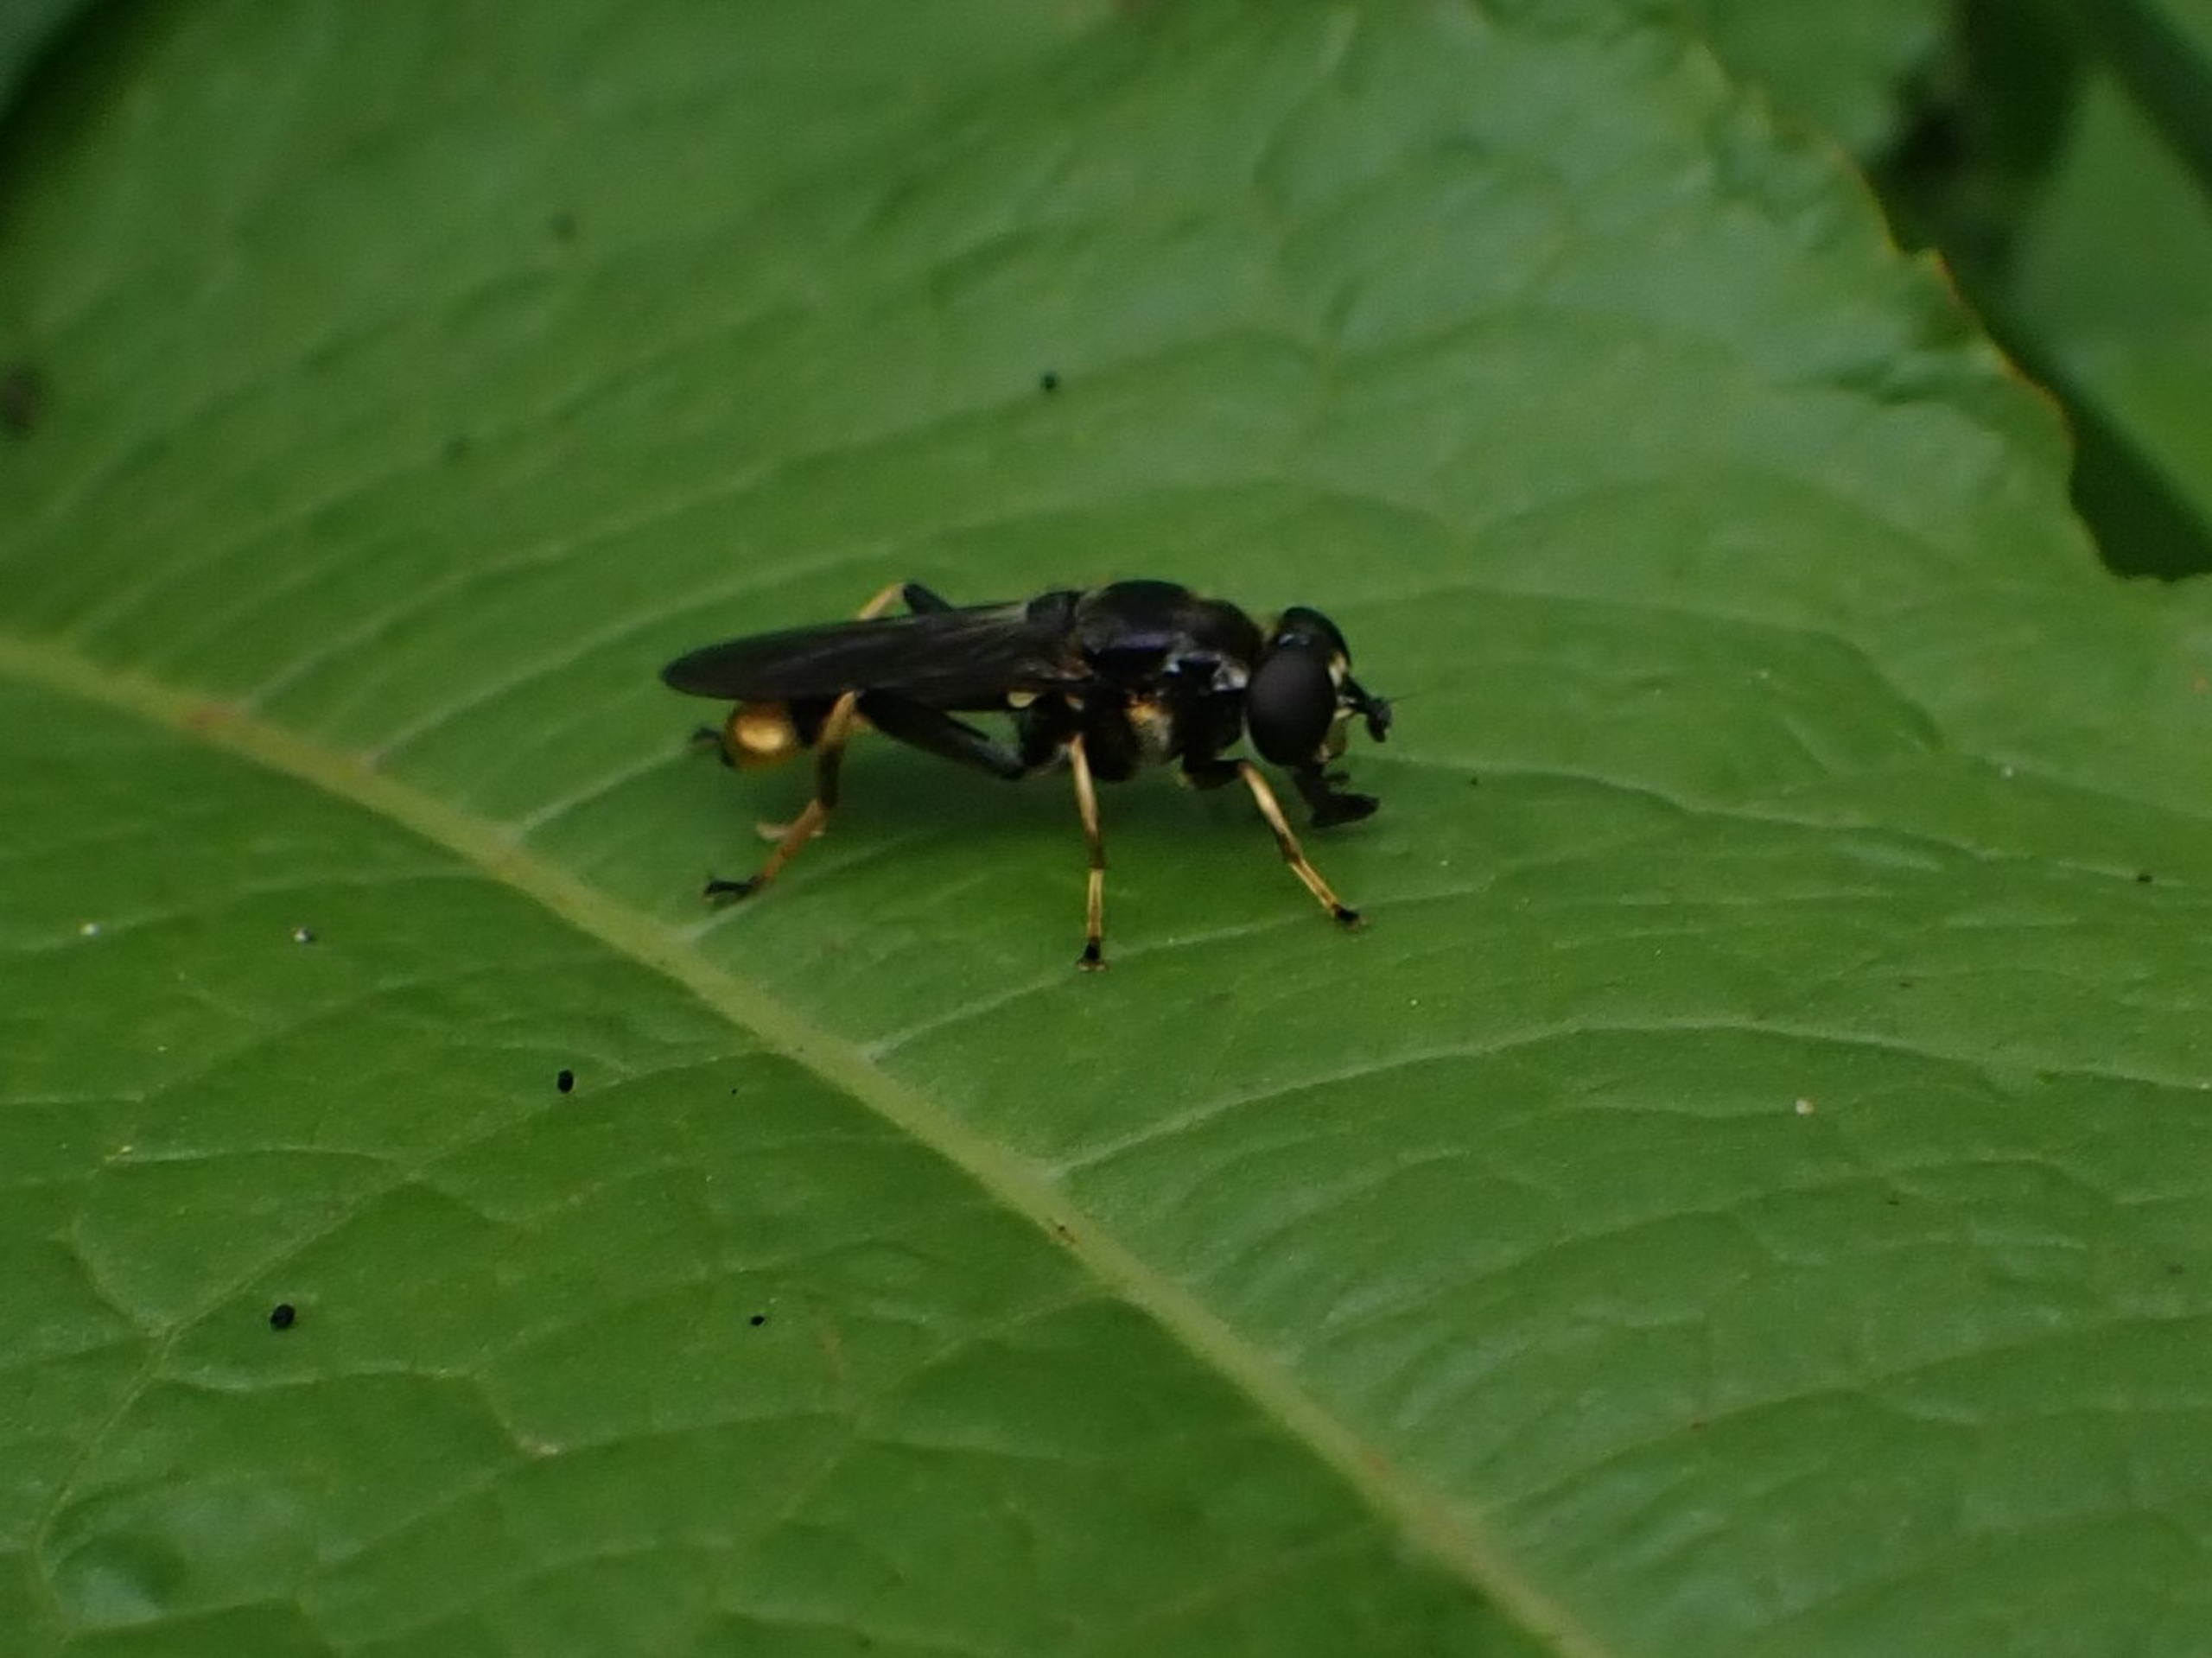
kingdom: Animalia
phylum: Arthropoda
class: Insecta
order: Diptera
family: Syrphidae
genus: Xylota
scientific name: Xylota sylvarum
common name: Guldhåret træsvirreflue
